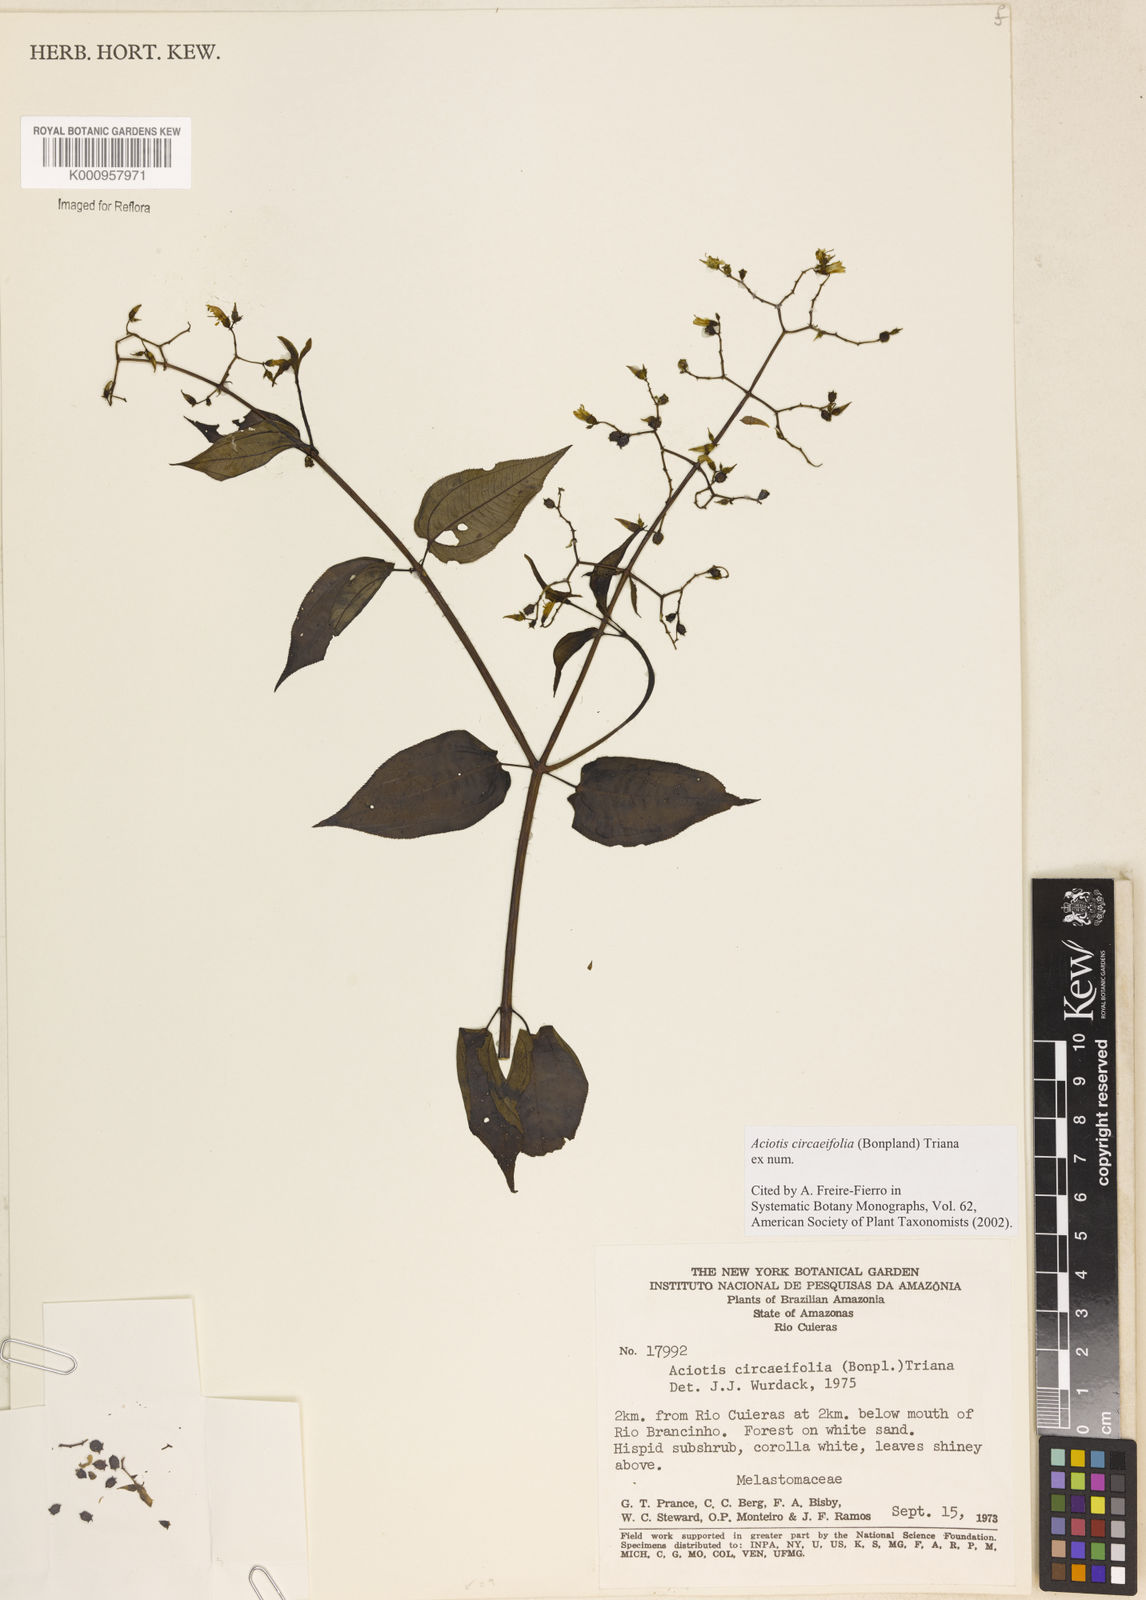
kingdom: Plantae
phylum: Tracheophyta
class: Magnoliopsida
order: Myrtales
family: Melastomataceae
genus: Aciotis
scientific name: Aciotis circaeifolia
